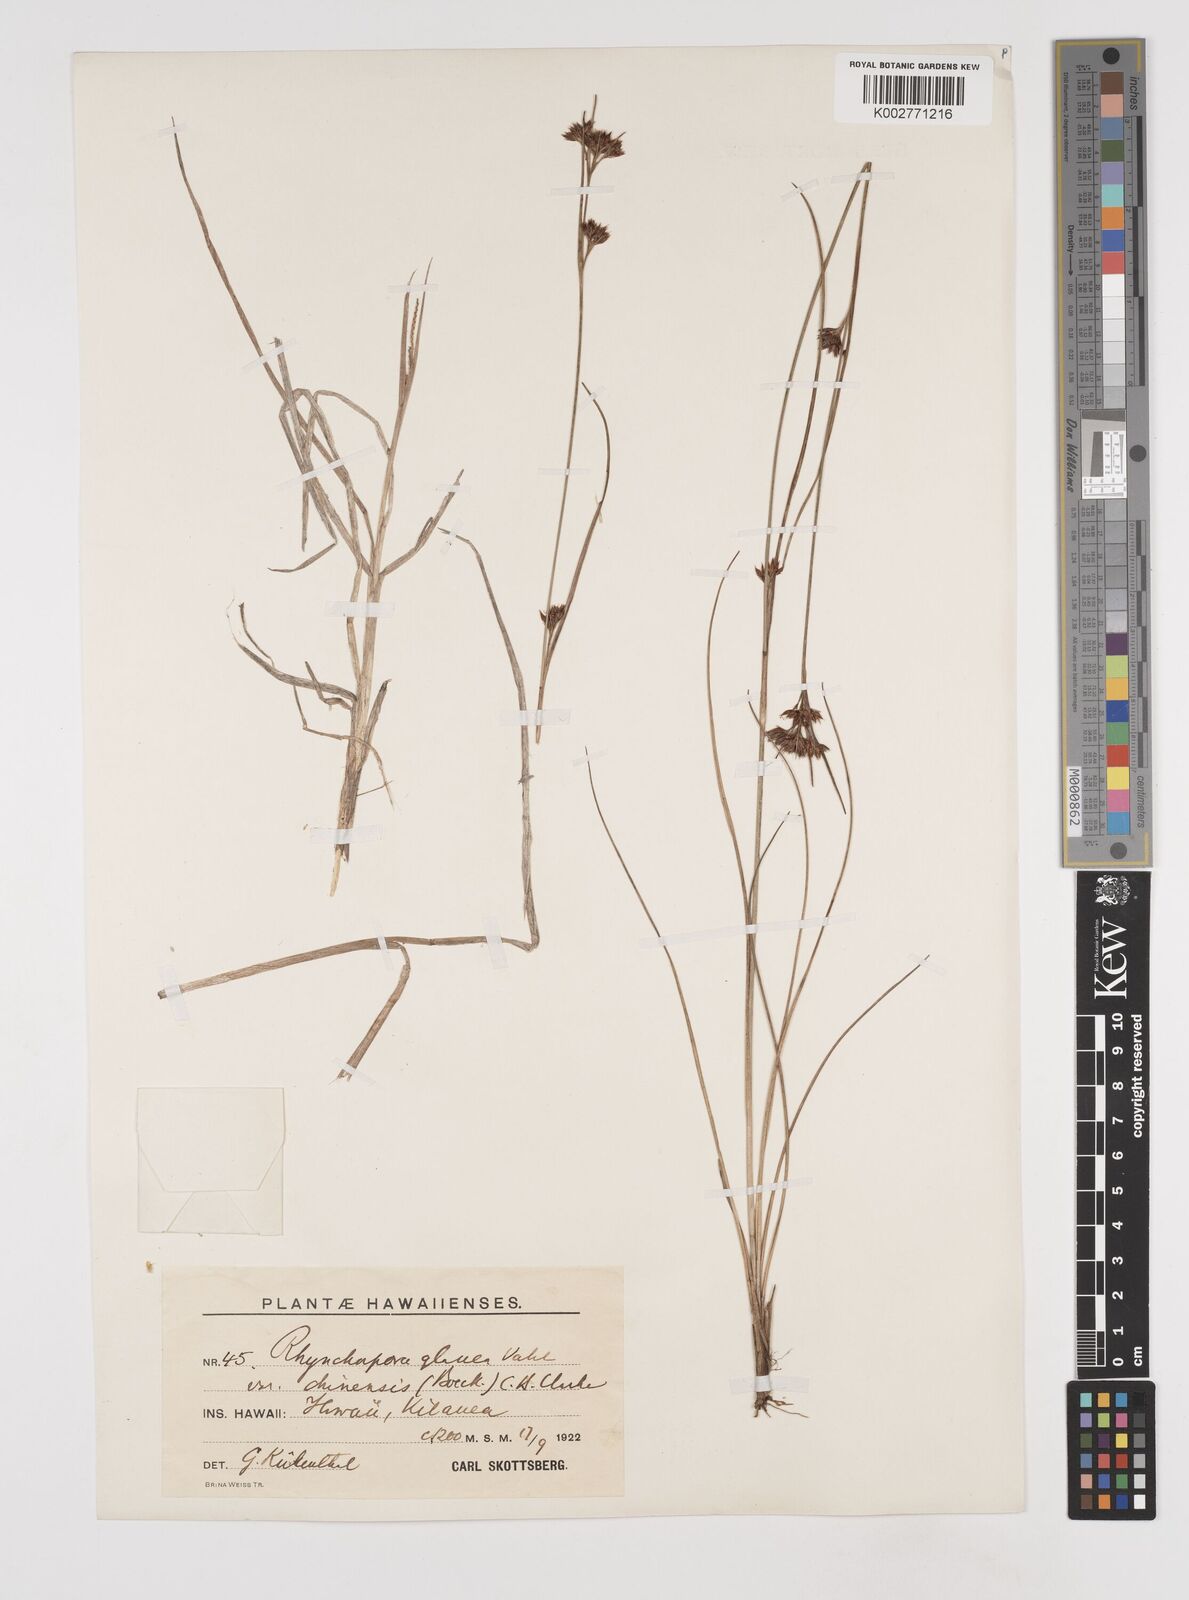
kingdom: Plantae
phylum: Tracheophyta
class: Liliopsida
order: Poales
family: Cyperaceae
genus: Rhynchospora
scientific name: Rhynchospora rugosa
